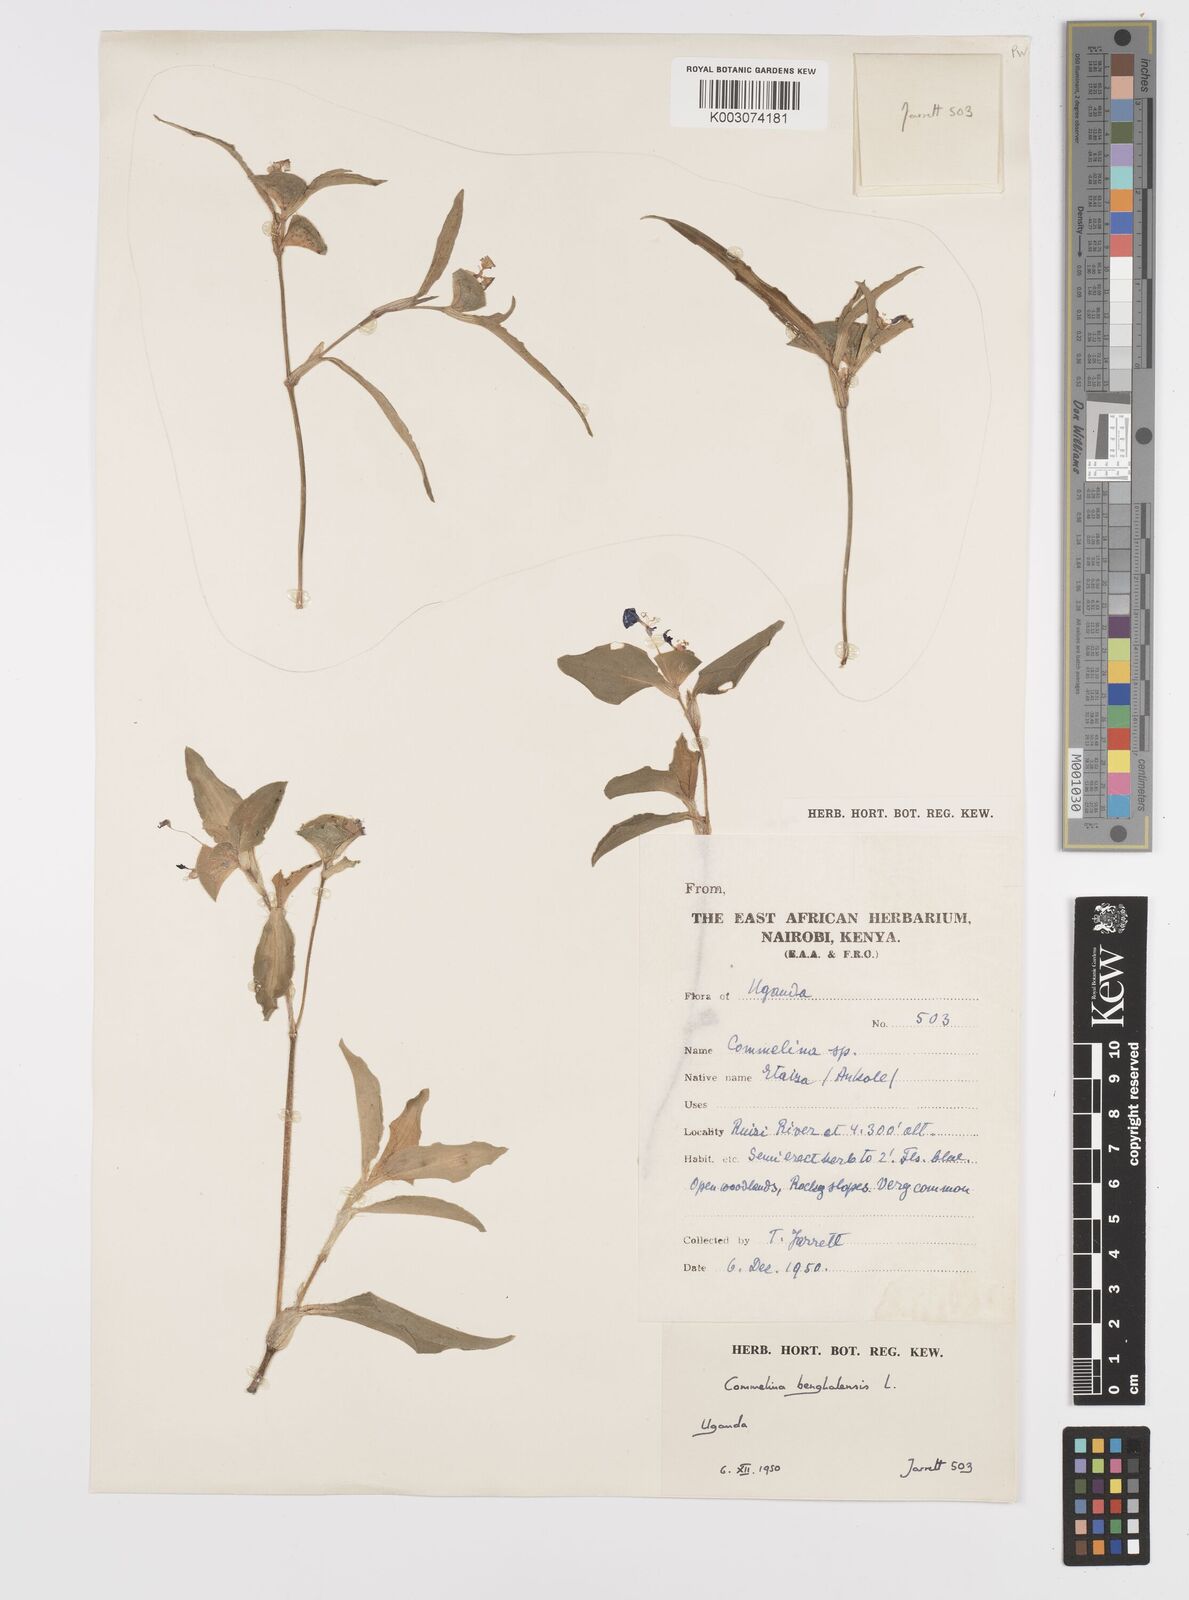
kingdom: Plantae
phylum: Tracheophyta
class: Liliopsida
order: Commelinales
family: Commelinaceae
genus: Commelina
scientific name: Commelina benghalensis
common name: Jio
